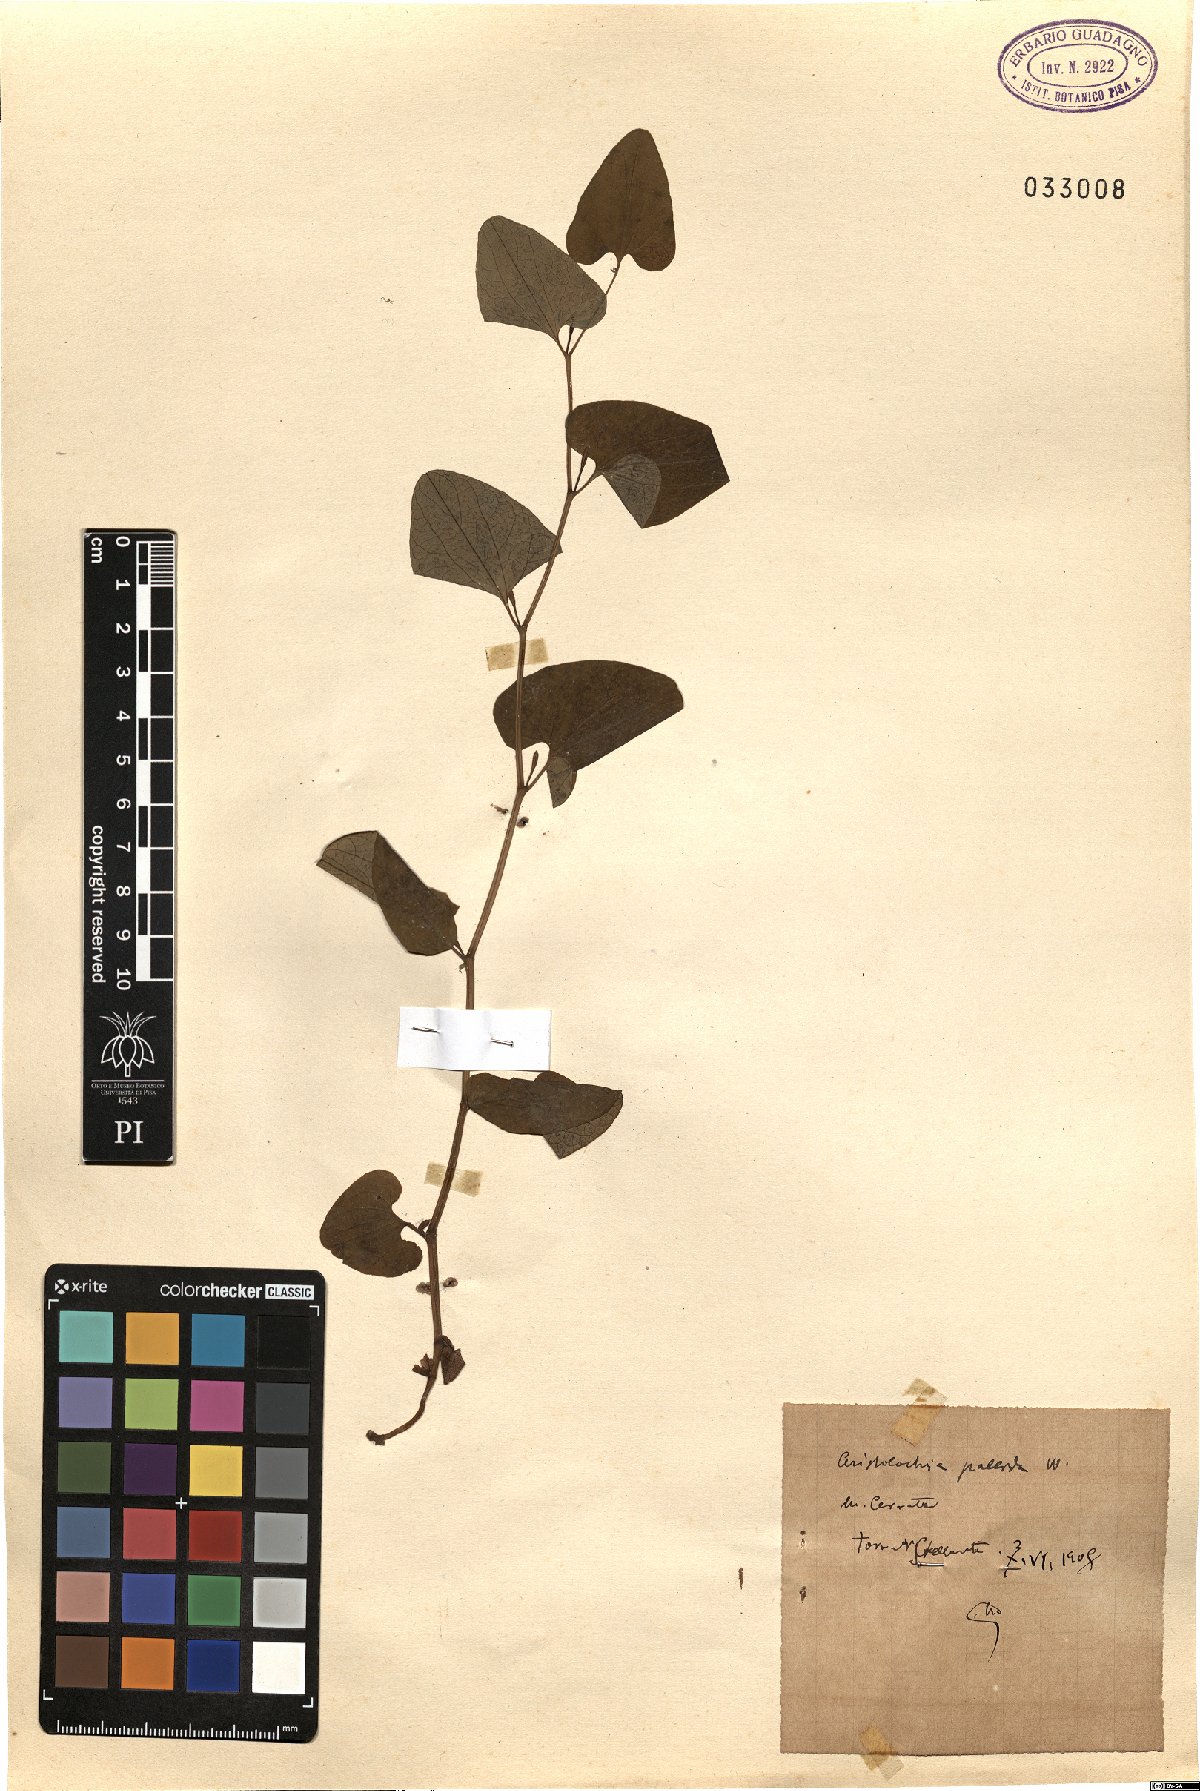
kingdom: Plantae
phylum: Tracheophyta
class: Magnoliopsida
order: Piperales
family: Aristolochiaceae
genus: Aristolochia
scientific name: Aristolochia pallida
